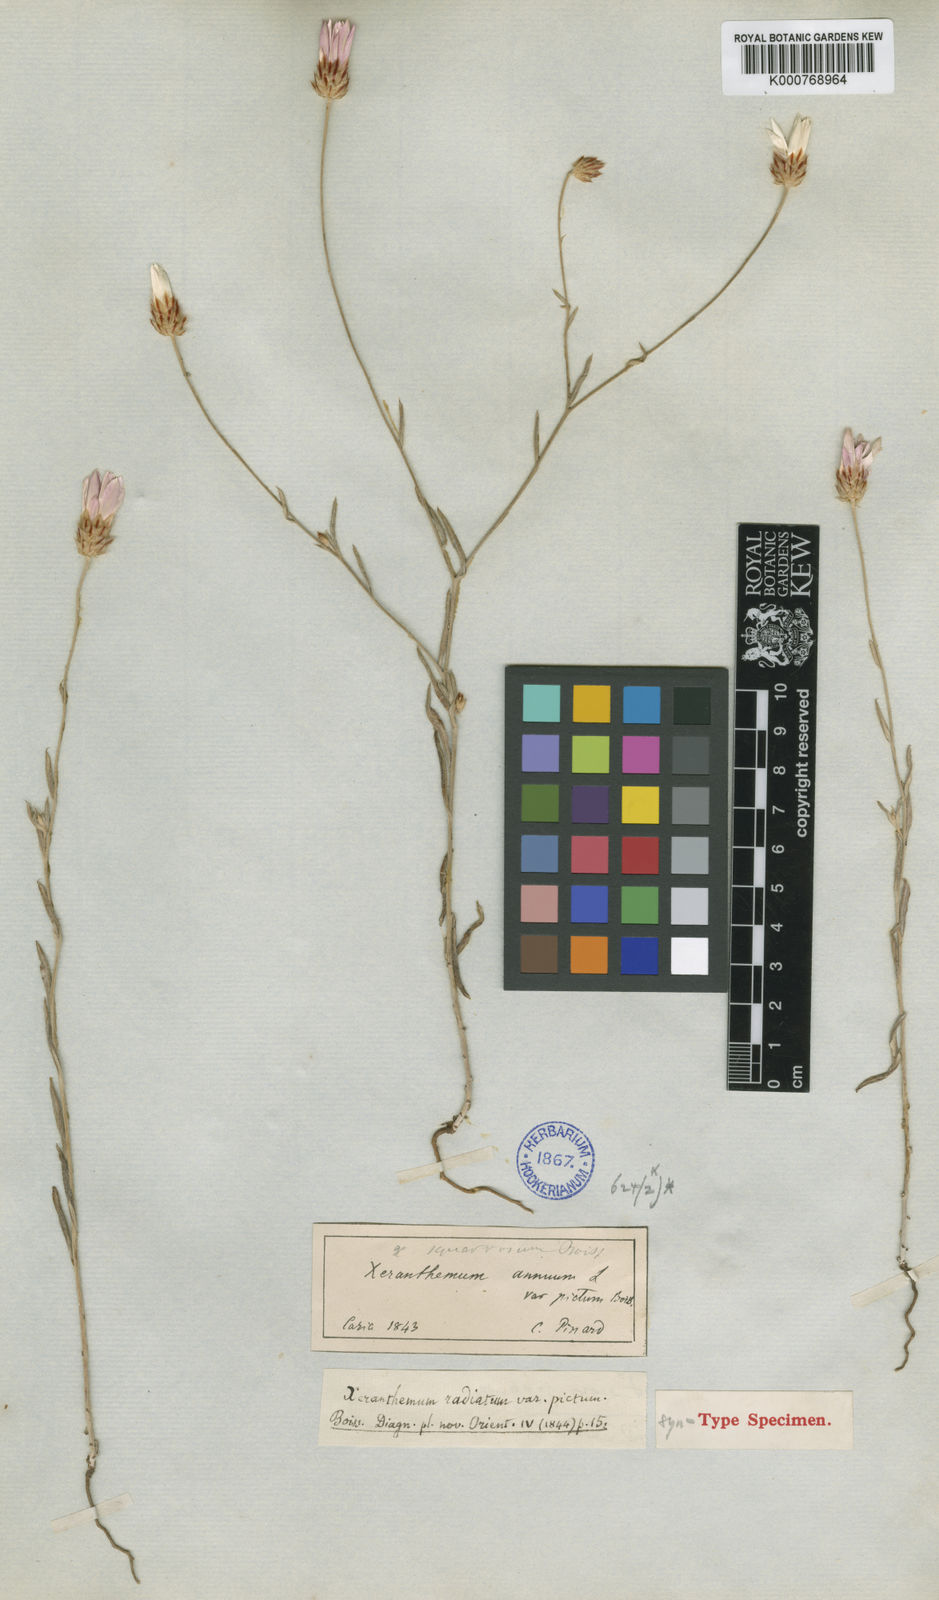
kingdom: Plantae
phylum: Tracheophyta
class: Magnoliopsida
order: Asterales
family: Asteraceae
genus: Xeranthemum
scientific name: Xeranthemum squarrosum
